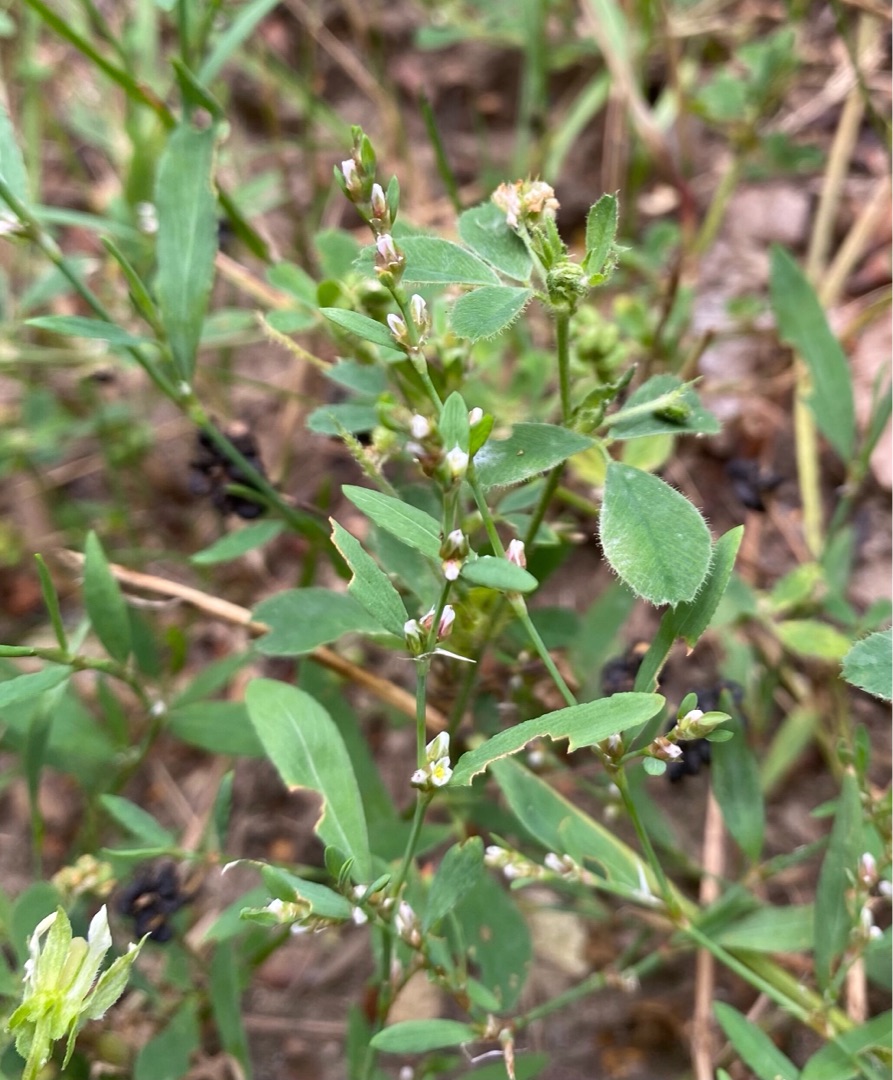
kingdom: Plantae
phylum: Tracheophyta
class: Magnoliopsida
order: Caryophyllales
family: Polygonaceae
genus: Polygonum
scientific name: Polygonum aviculare
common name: Vej-pileurt
